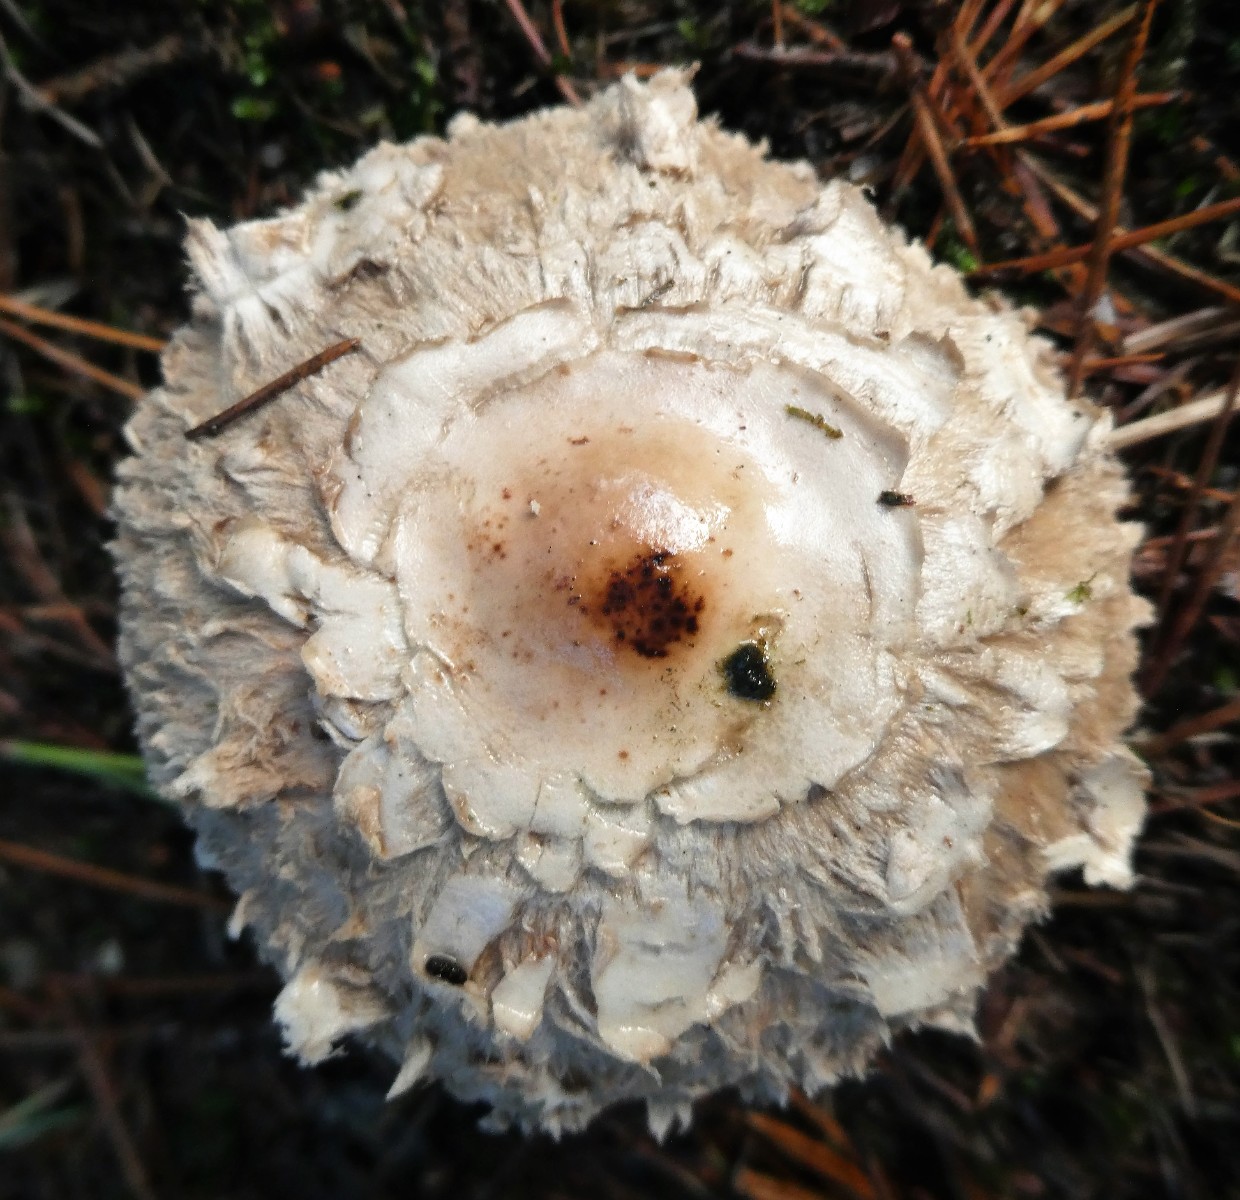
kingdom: Fungi
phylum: Basidiomycota
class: Agaricomycetes
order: Agaricales
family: Agaricaceae
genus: Chlorophyllum
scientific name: Chlorophyllum olivieri
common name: almindelig rabarberhat
